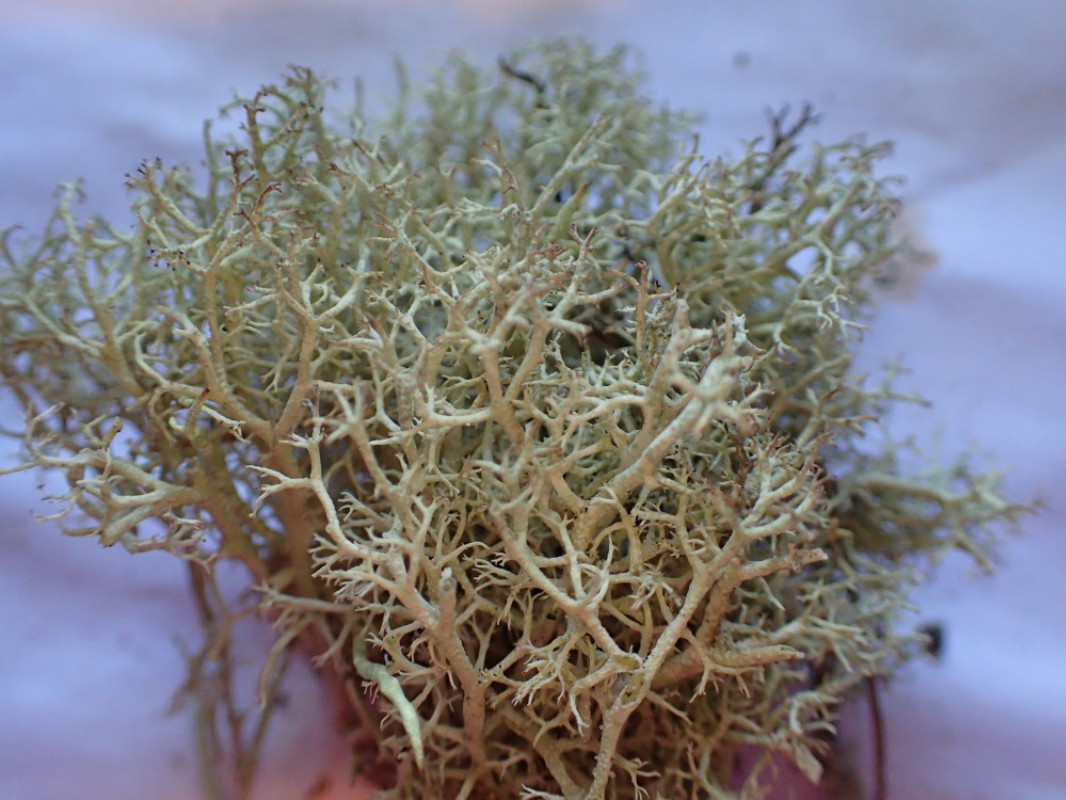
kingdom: Fungi
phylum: Ascomycota
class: Lecanoromycetes
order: Lecanorales
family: Cladoniaceae
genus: Cladonia
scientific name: Cladonia portentosa
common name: hede-rensdyrlav
